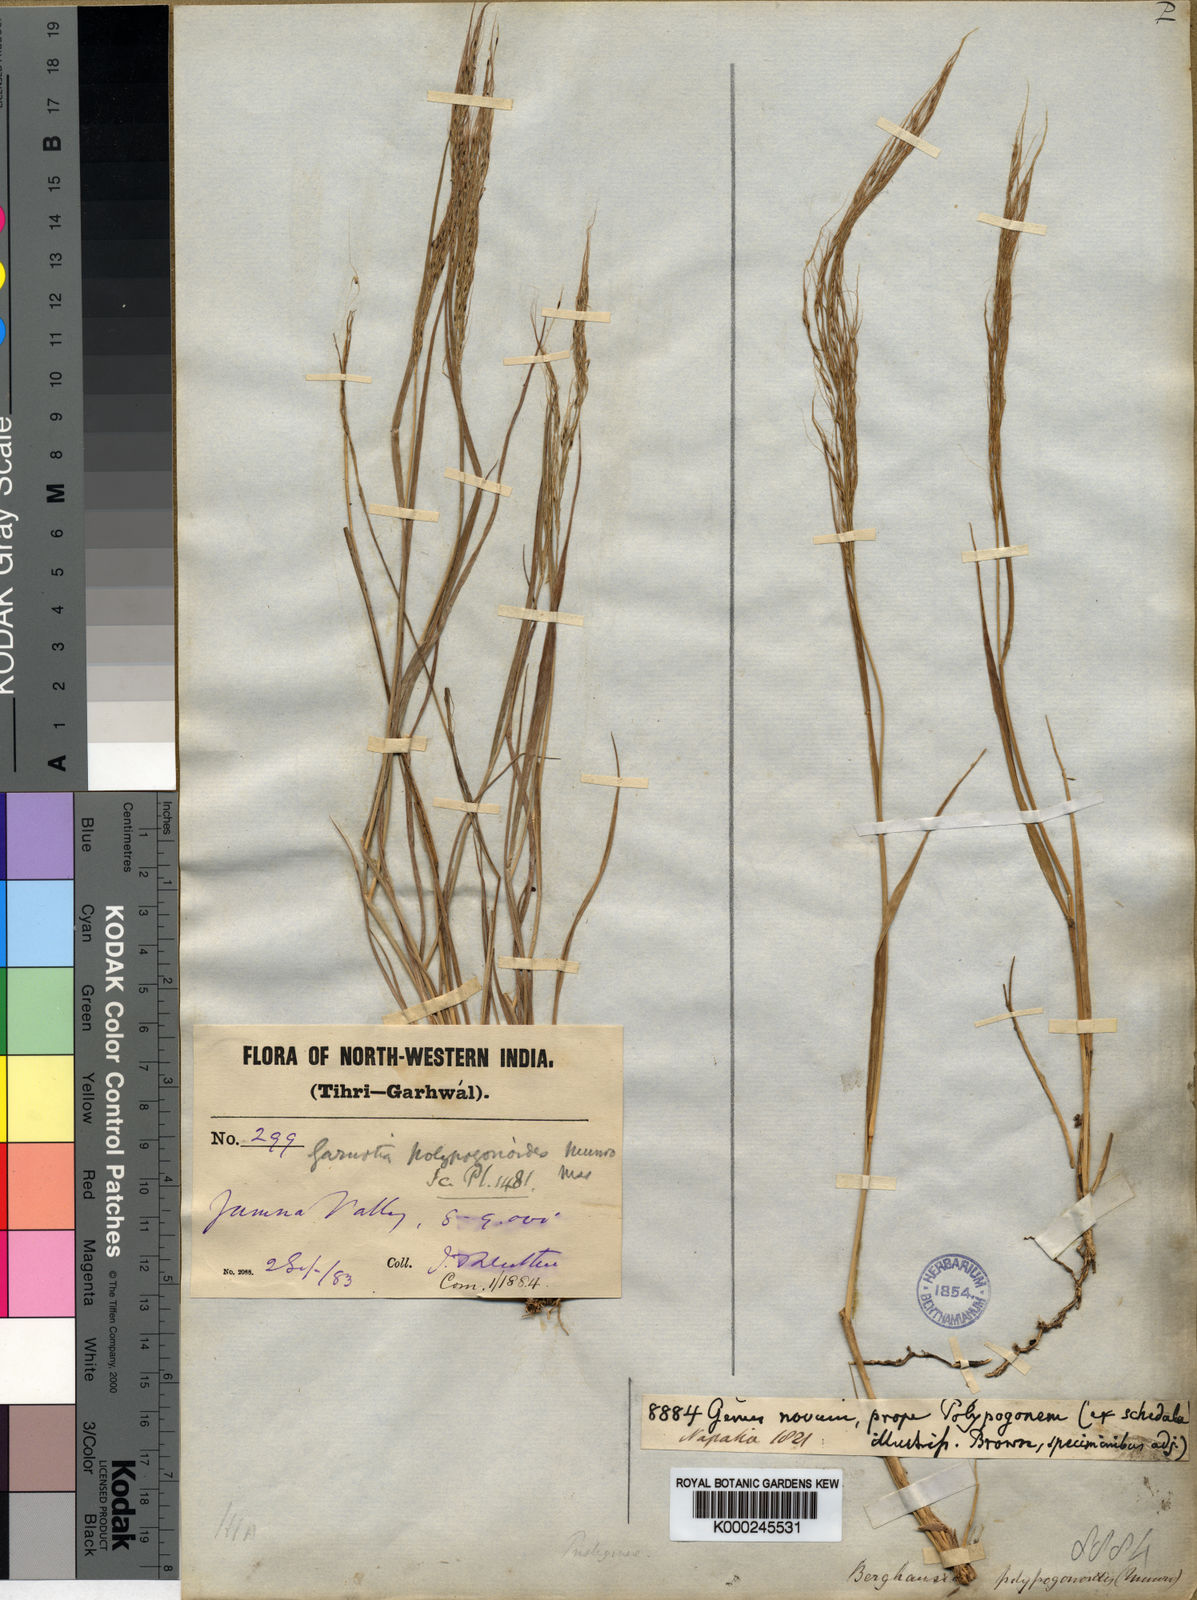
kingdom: Plantae
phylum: Tracheophyta
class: Liliopsida
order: Poales
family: Poaceae
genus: Garnotia
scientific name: Garnotia emodi
